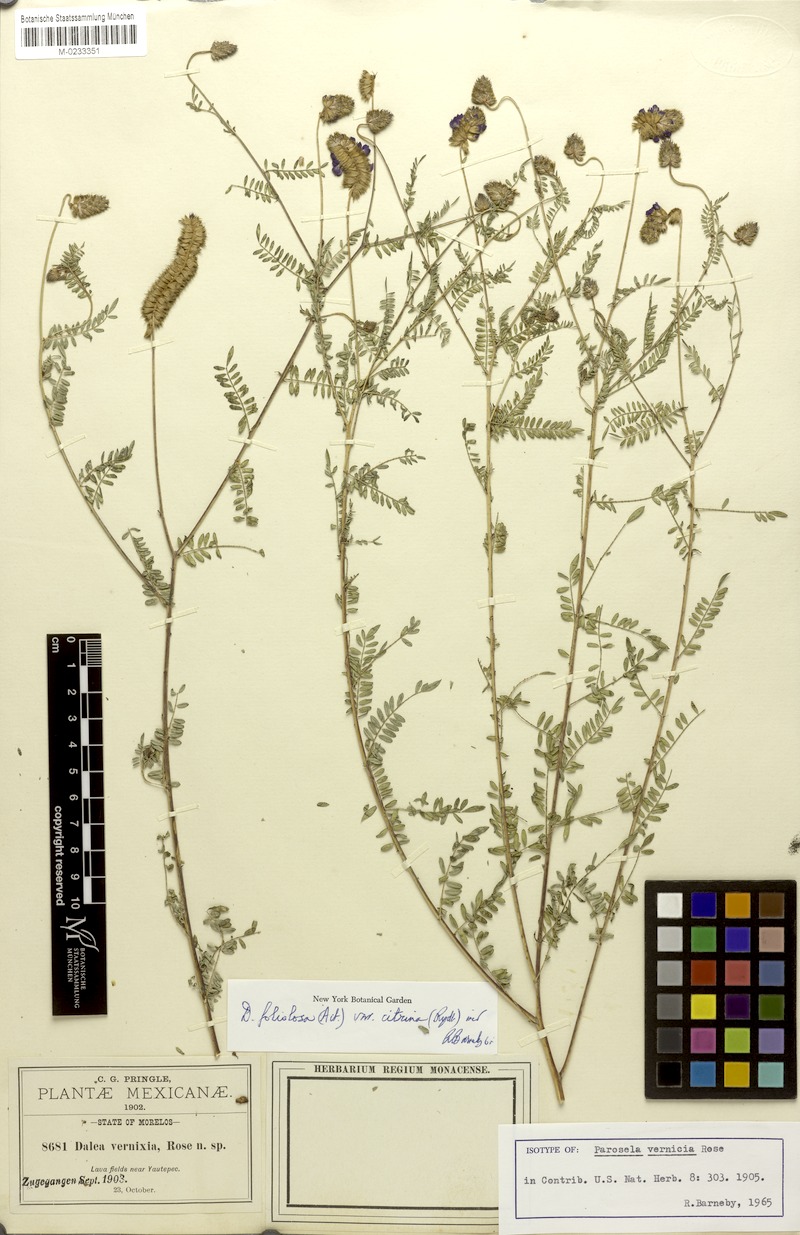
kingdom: Plantae
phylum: Tracheophyta
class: Magnoliopsida
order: Fabales
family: Fabaceae
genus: Dalea
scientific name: Dalea foliolosa
